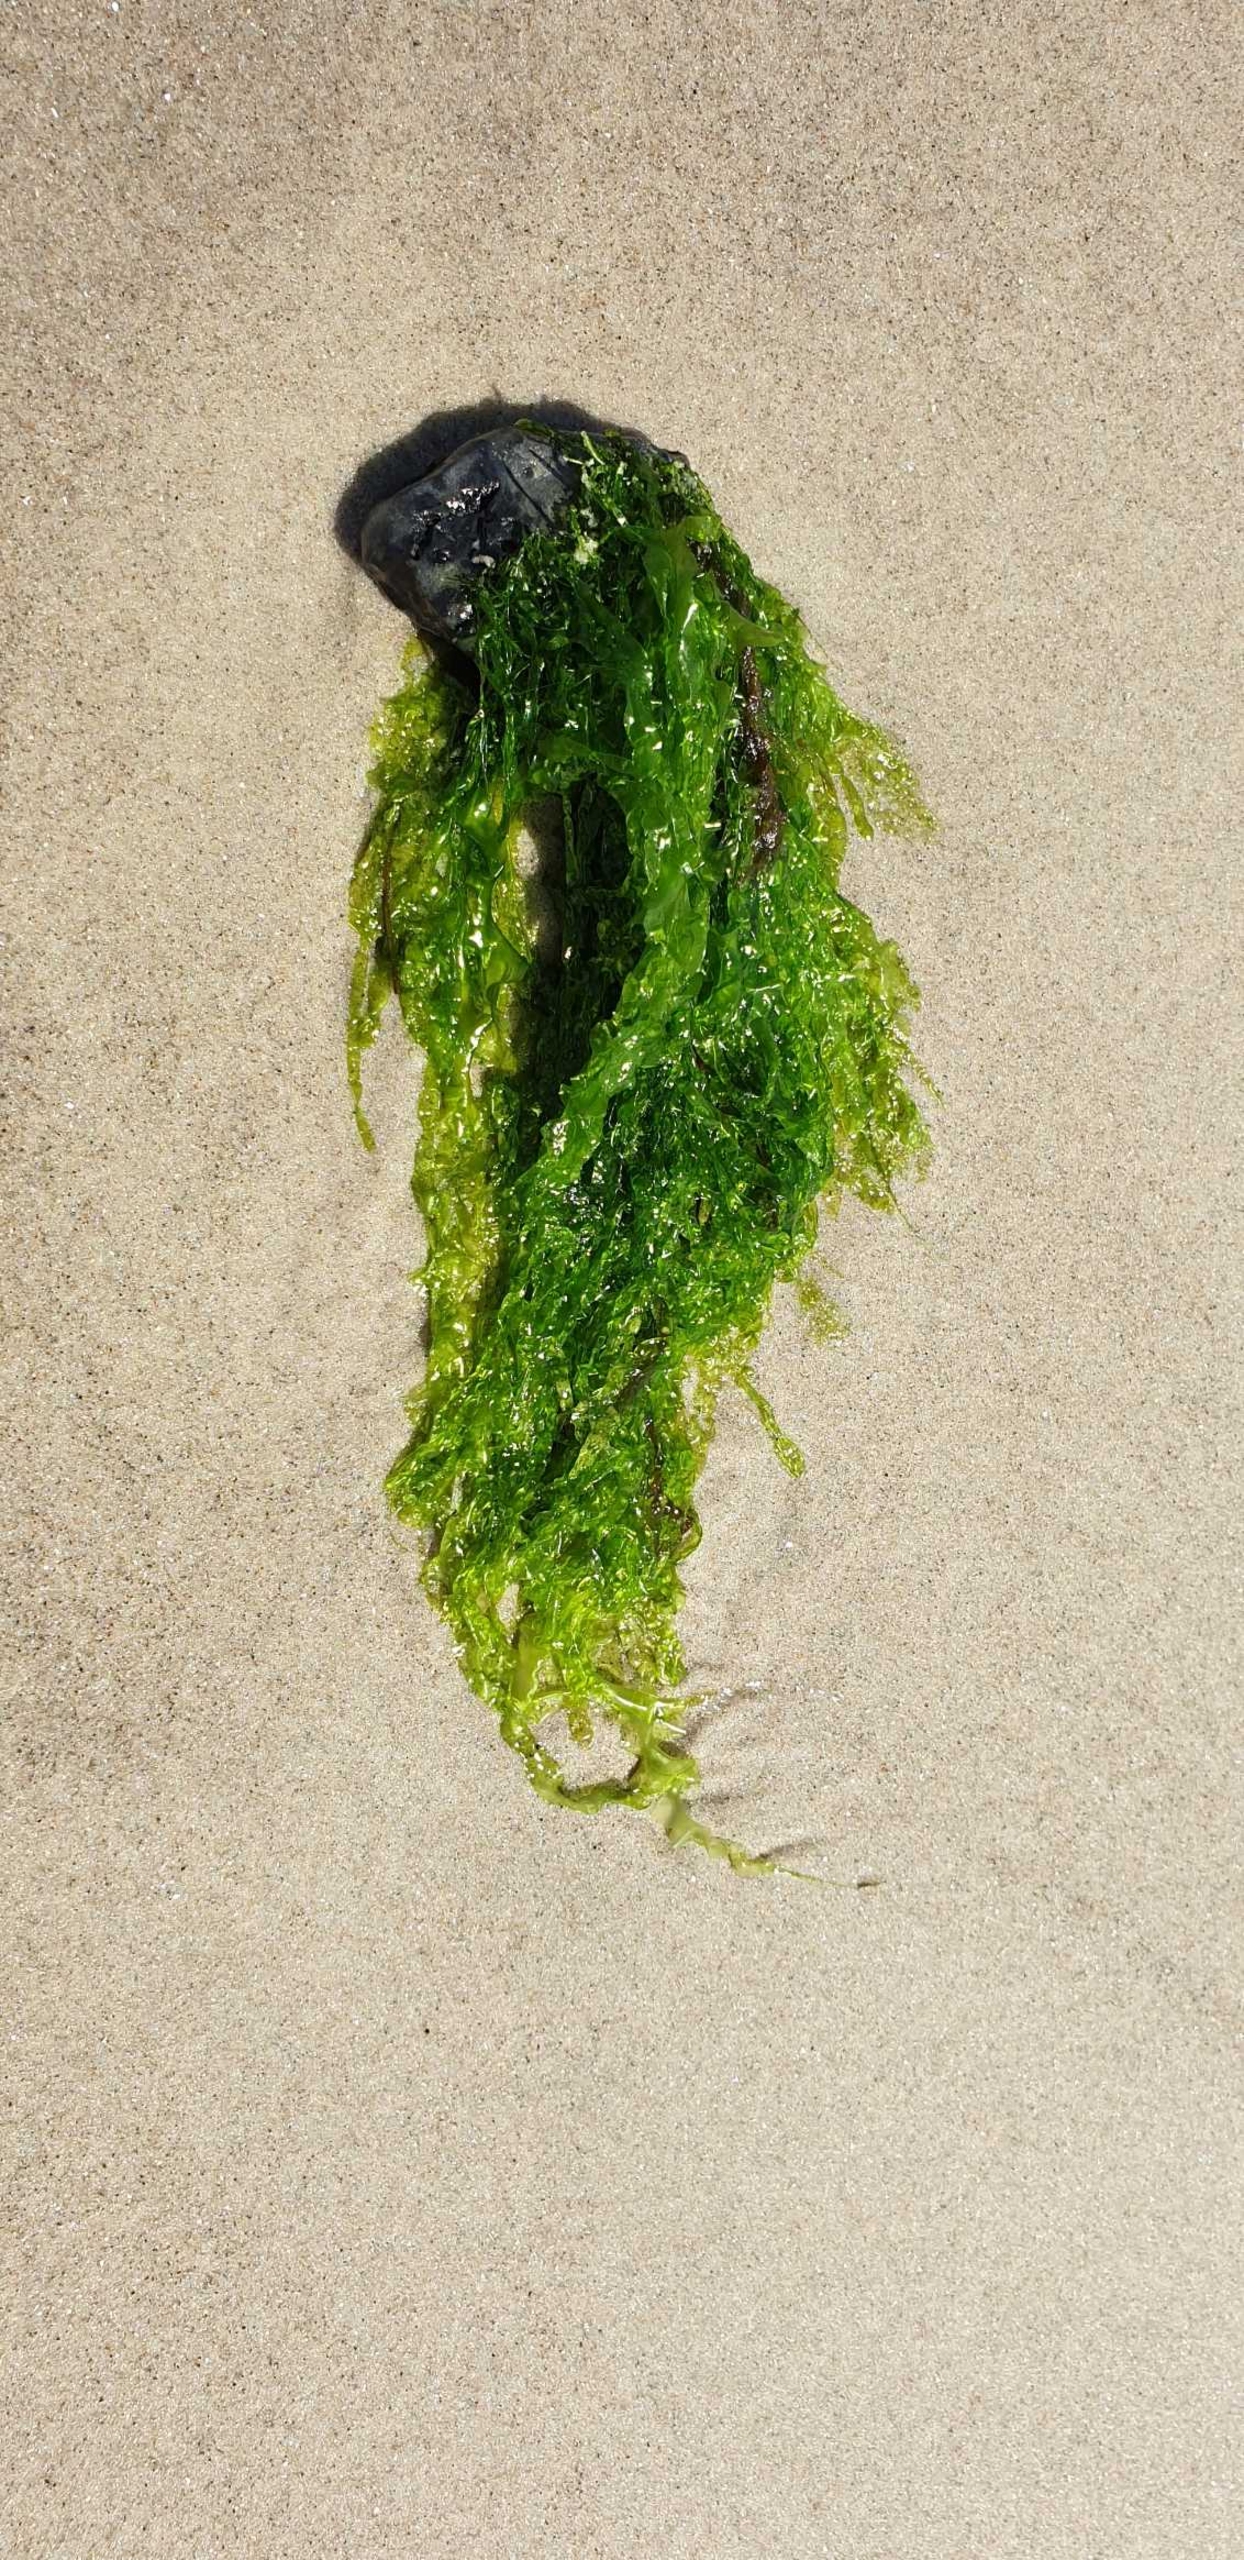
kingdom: Plantae
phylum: Chlorophyta
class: Ulvophyceae
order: Ulvales
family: Ulvaceae
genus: Ulva
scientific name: Ulva
